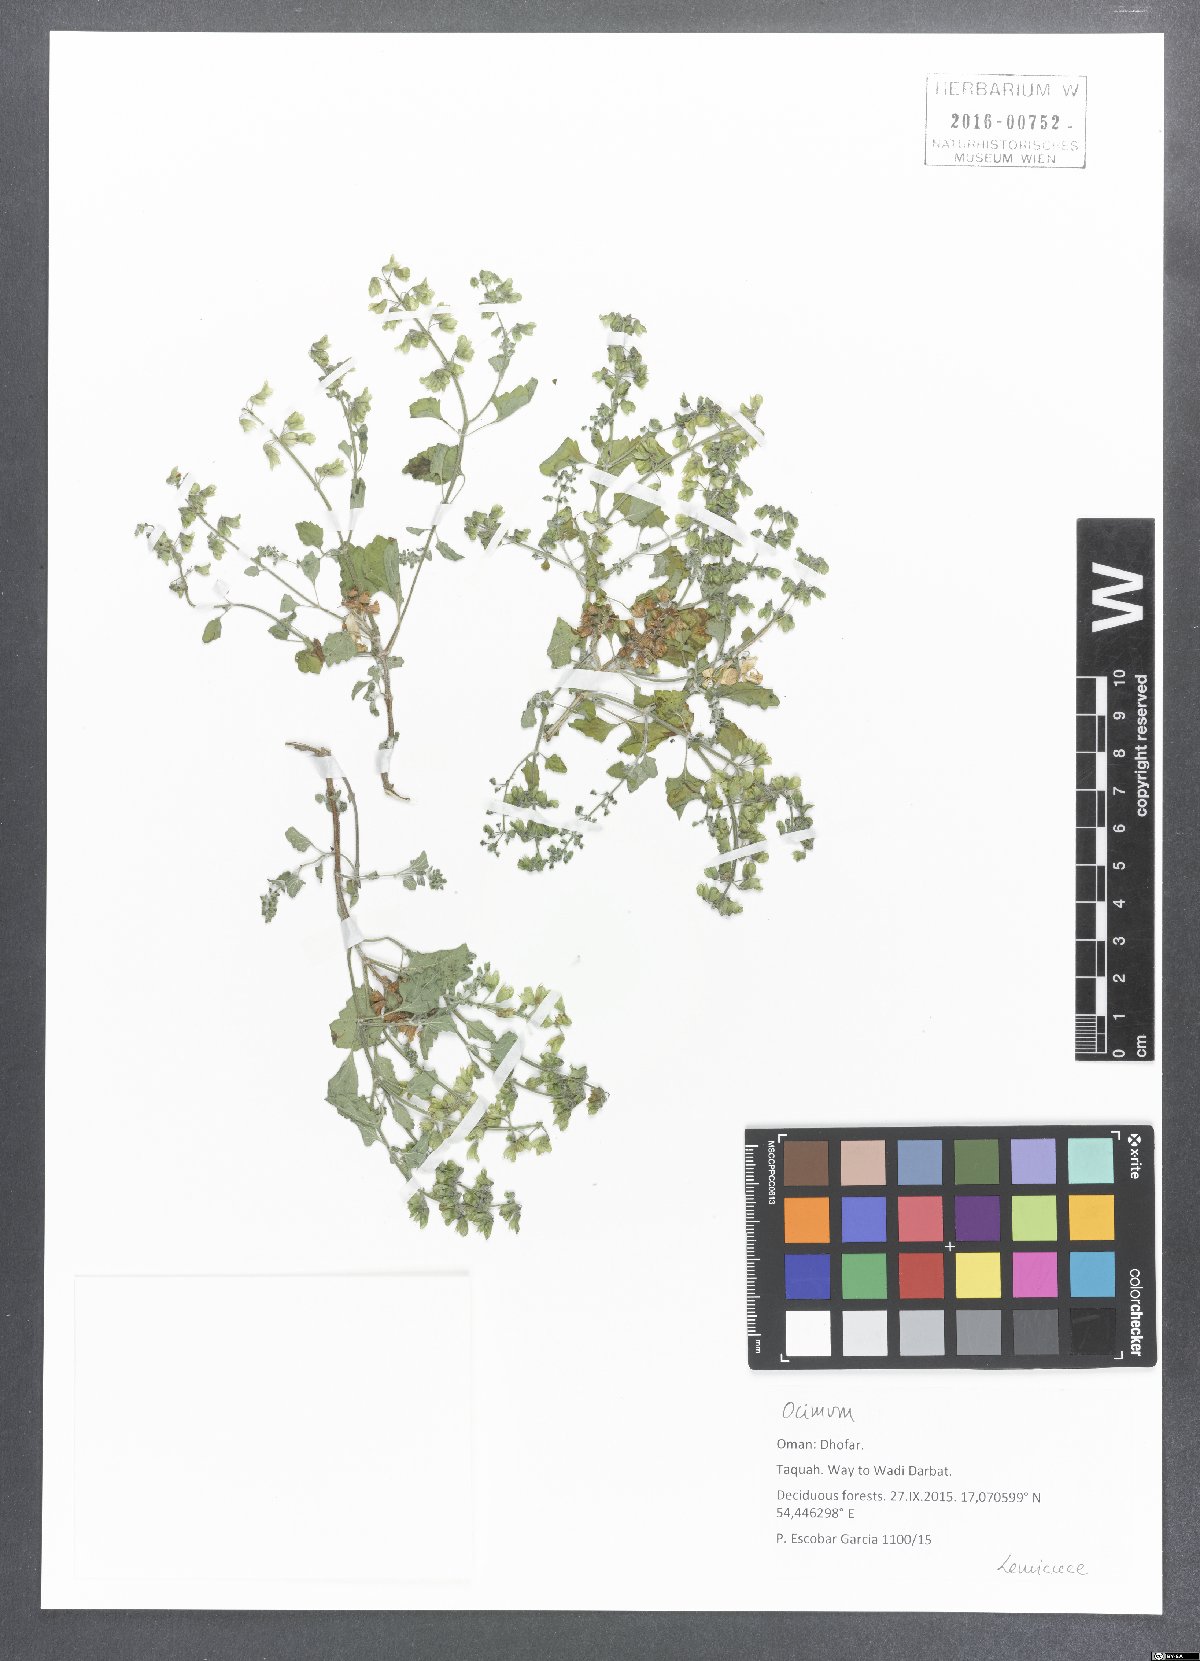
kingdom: Plantae
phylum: Tracheophyta
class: Magnoliopsida
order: Lamiales
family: Lamiaceae
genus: Ocimum
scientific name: Ocimum
